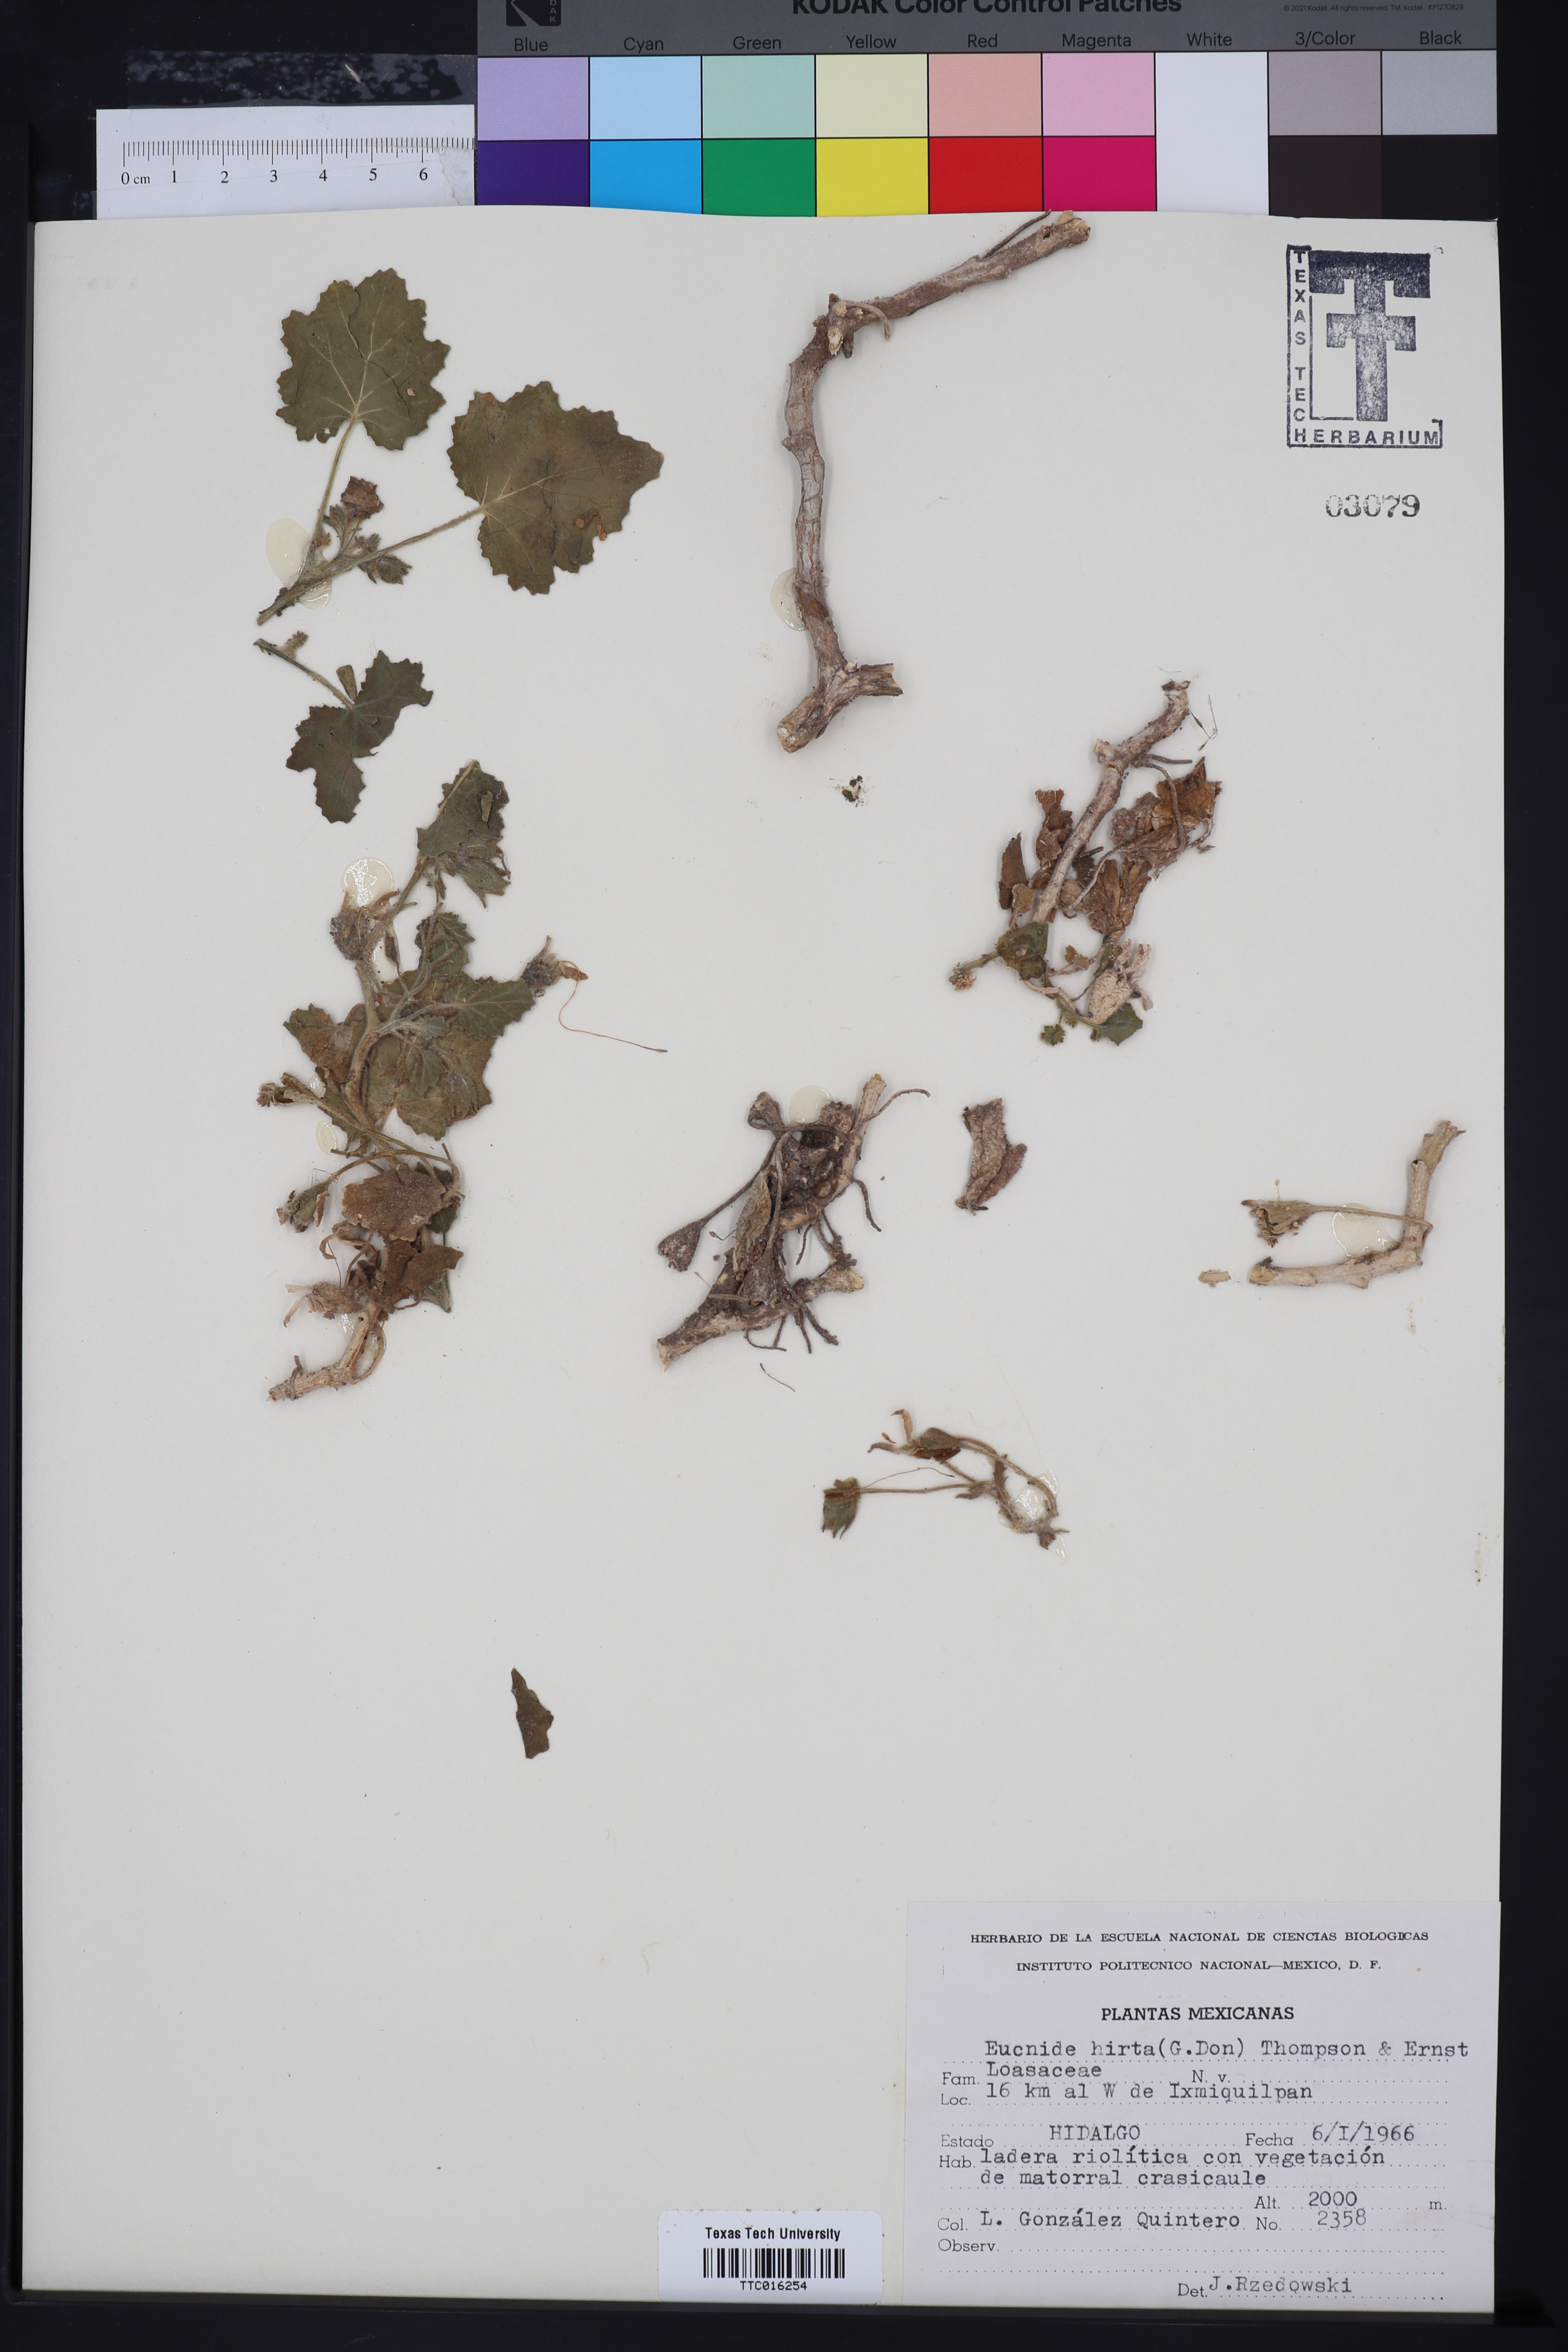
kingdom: Plantae
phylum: Tracheophyta
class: Magnoliopsida
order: Cornales
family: Loasaceae
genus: Eucnide
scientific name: Eucnide hirta
